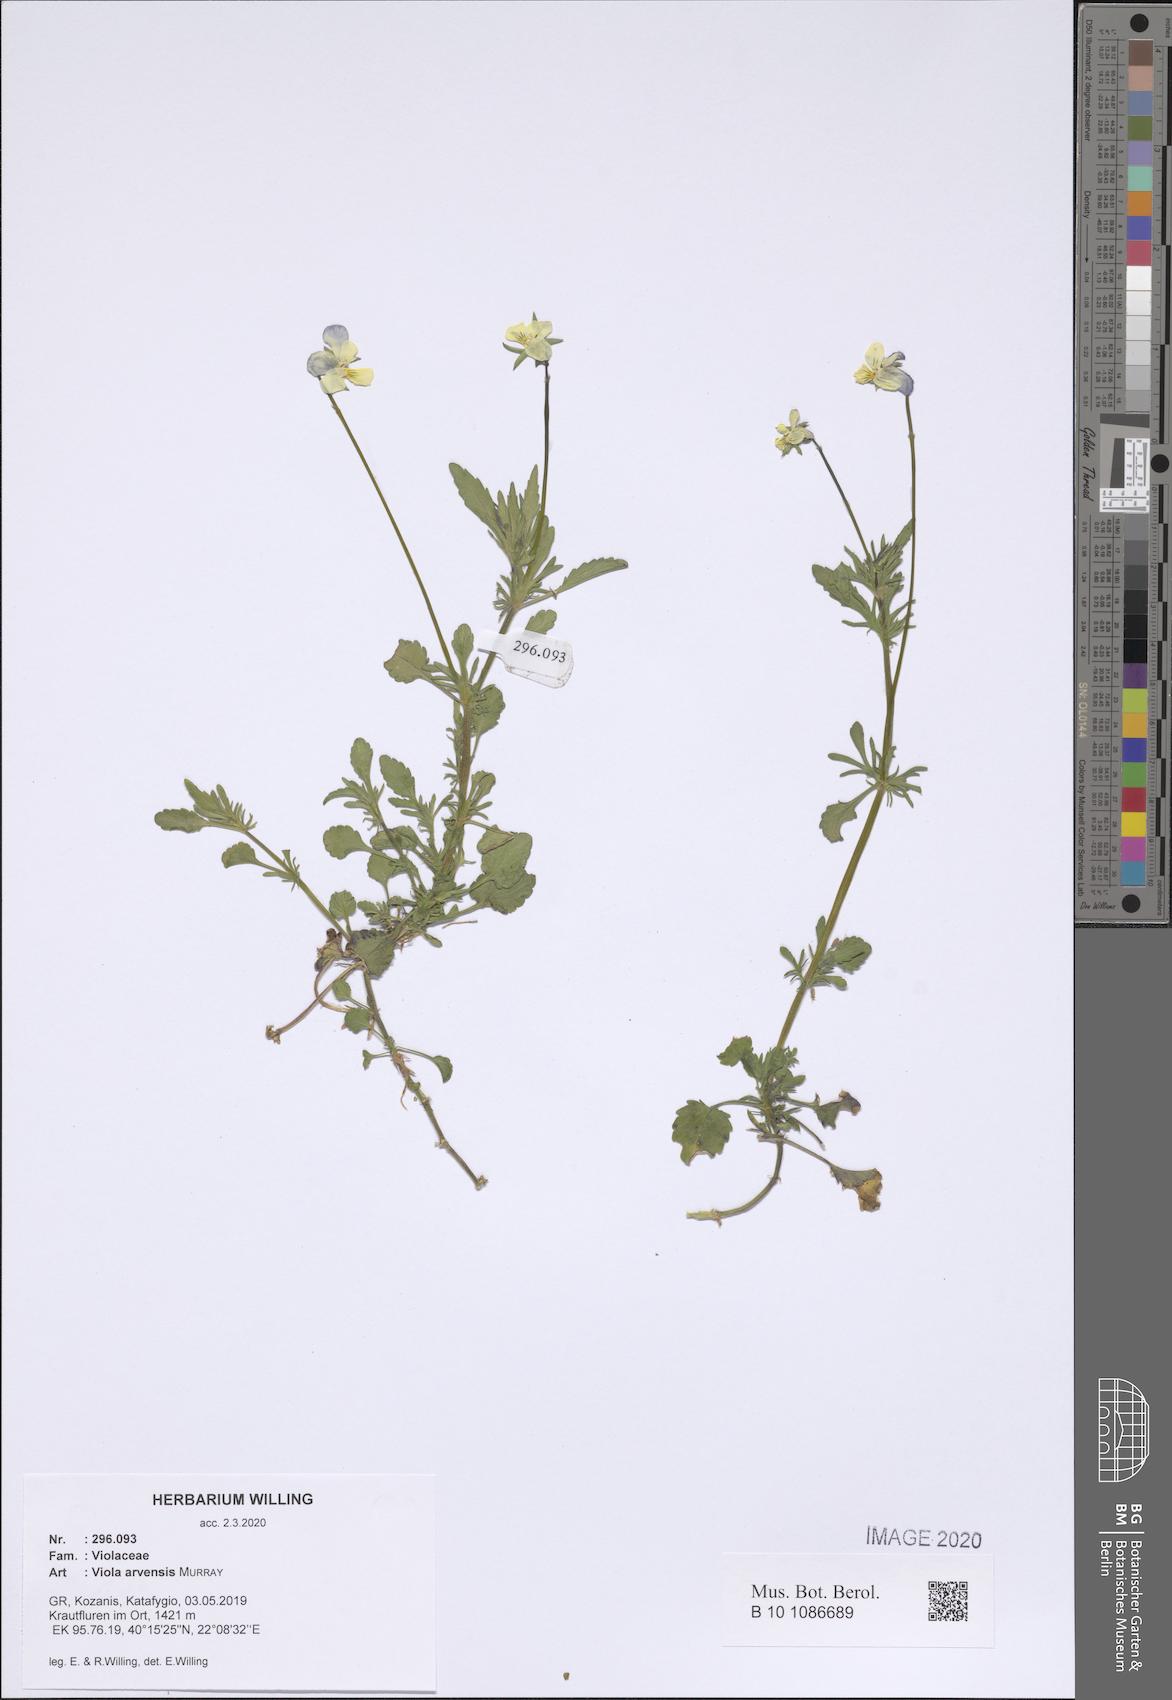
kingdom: Plantae
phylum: Tracheophyta
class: Magnoliopsida
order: Malpighiales
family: Violaceae
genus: Viola
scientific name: Viola arvensis
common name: Field pansy
